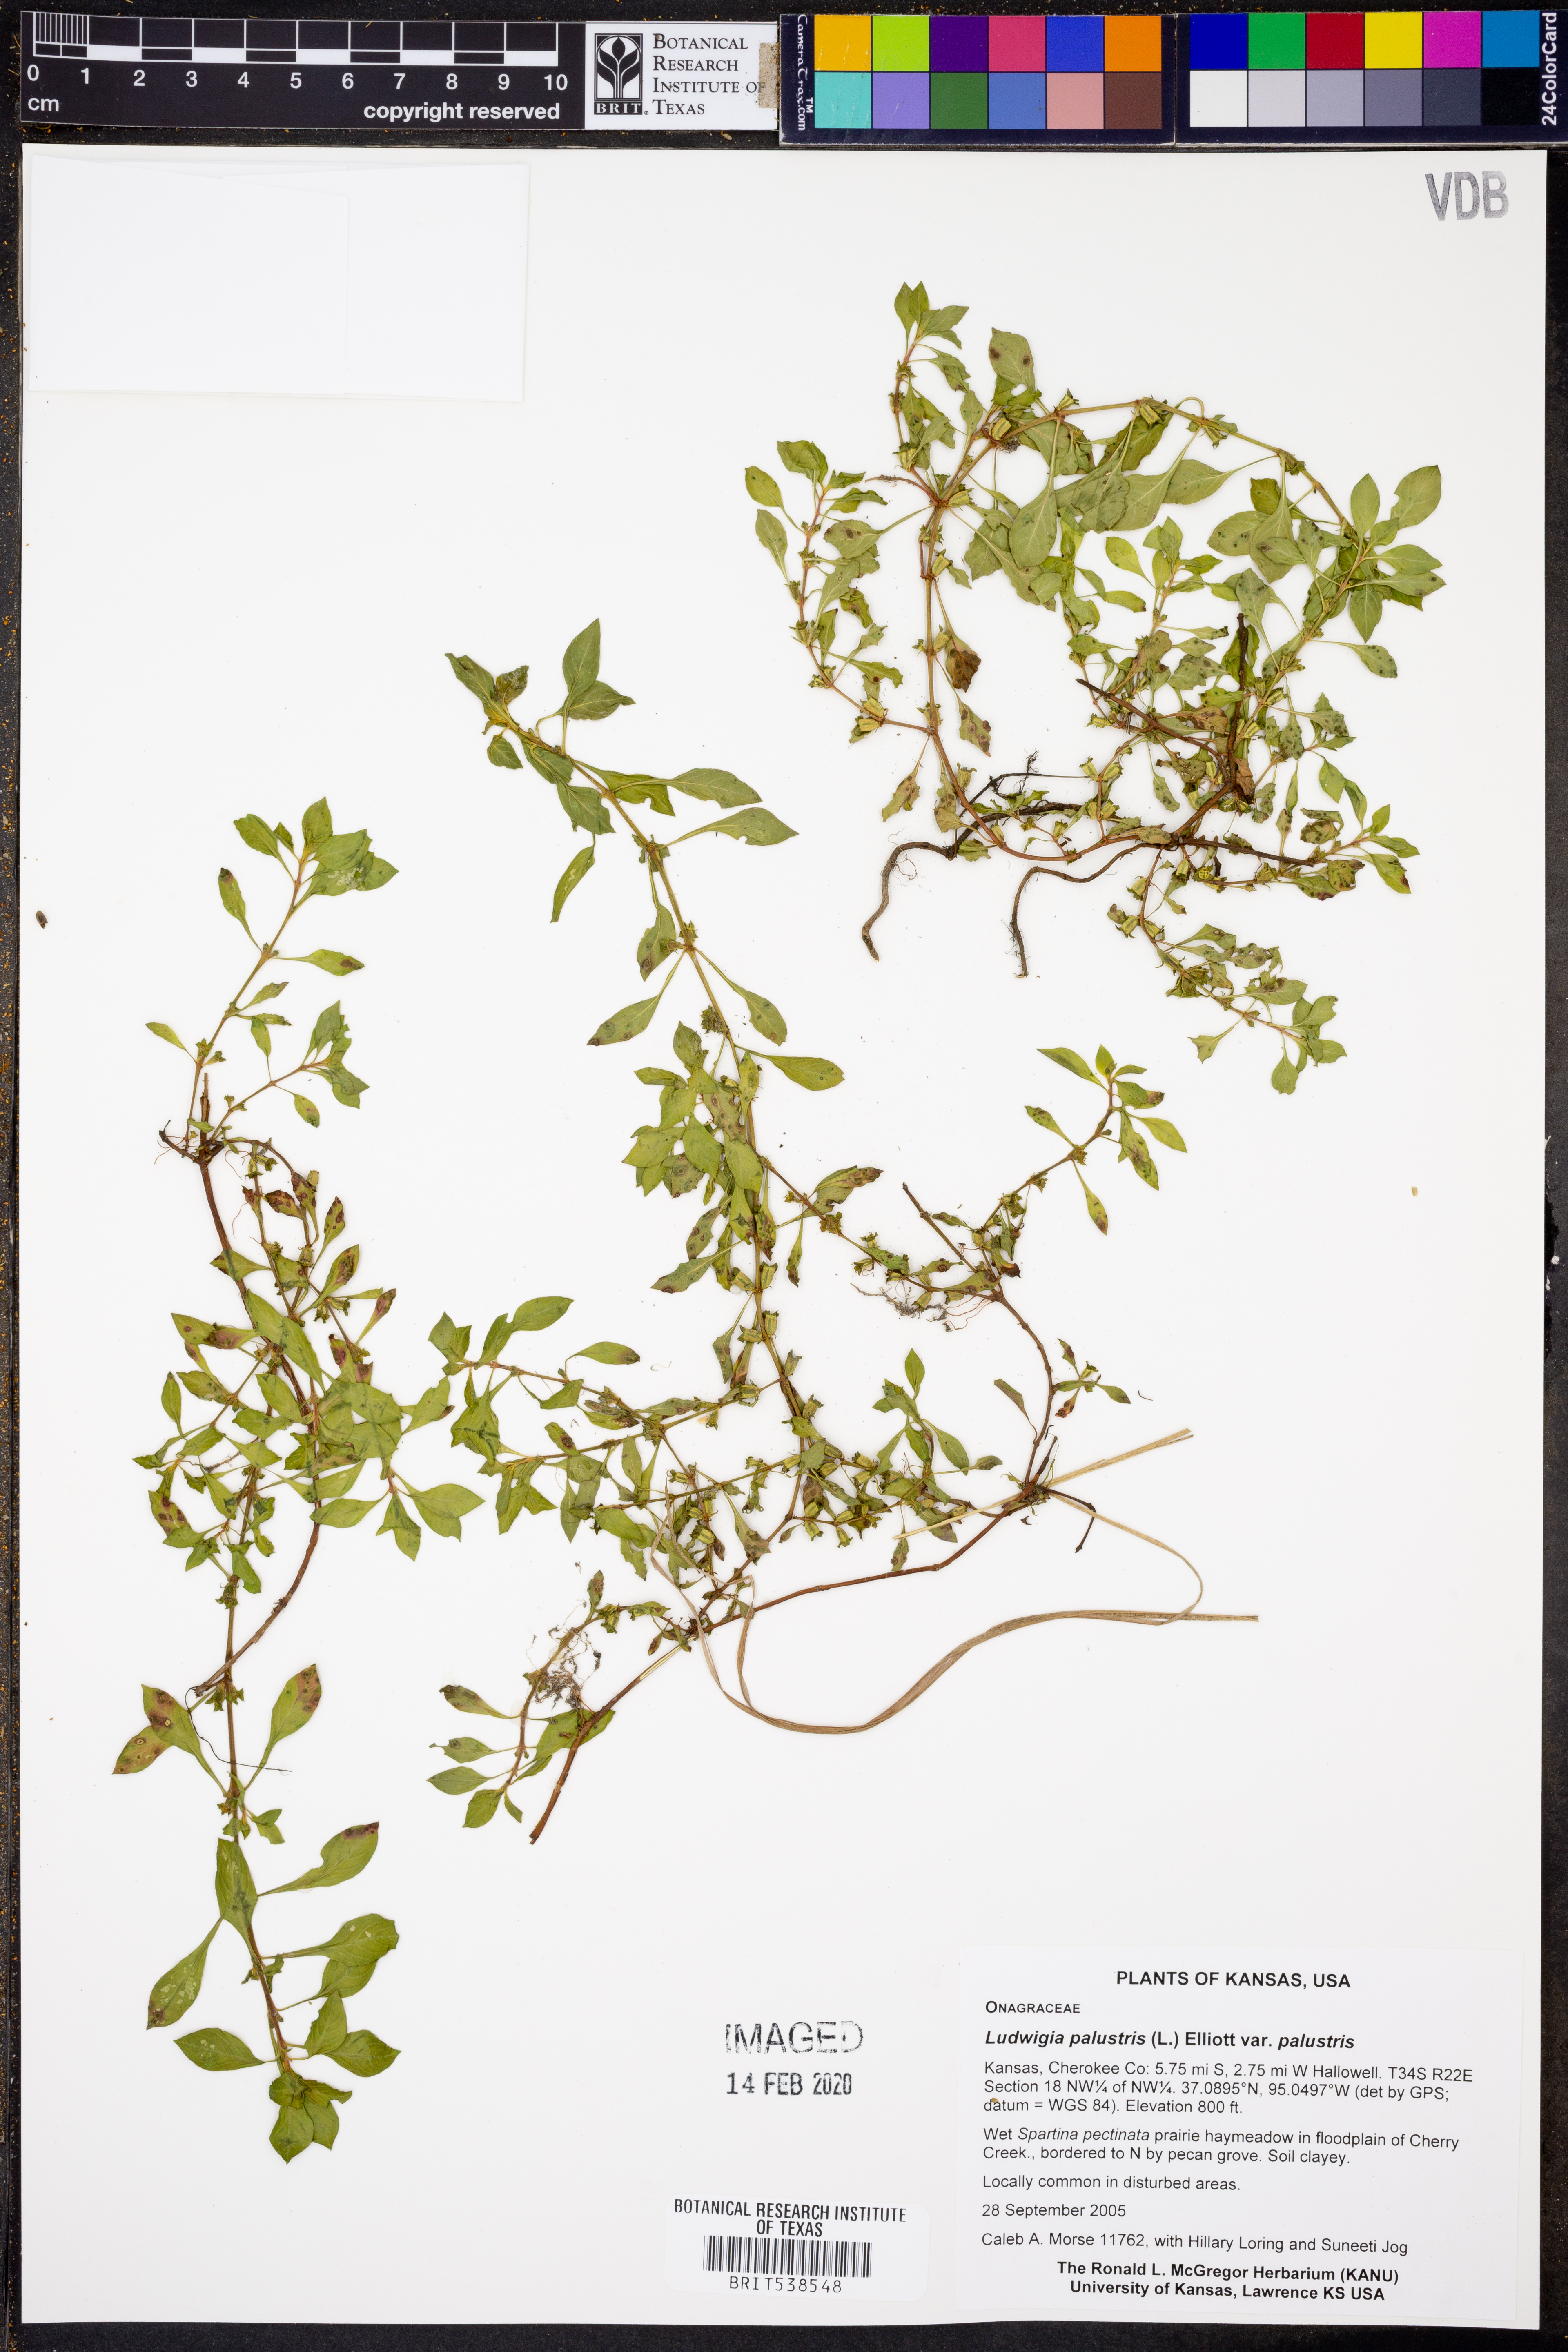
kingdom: Plantae
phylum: Tracheophyta
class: Magnoliopsida
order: Myrtales
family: Onagraceae
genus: Ludwigia
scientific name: Ludwigia palustris
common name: Hampshire-purslane
